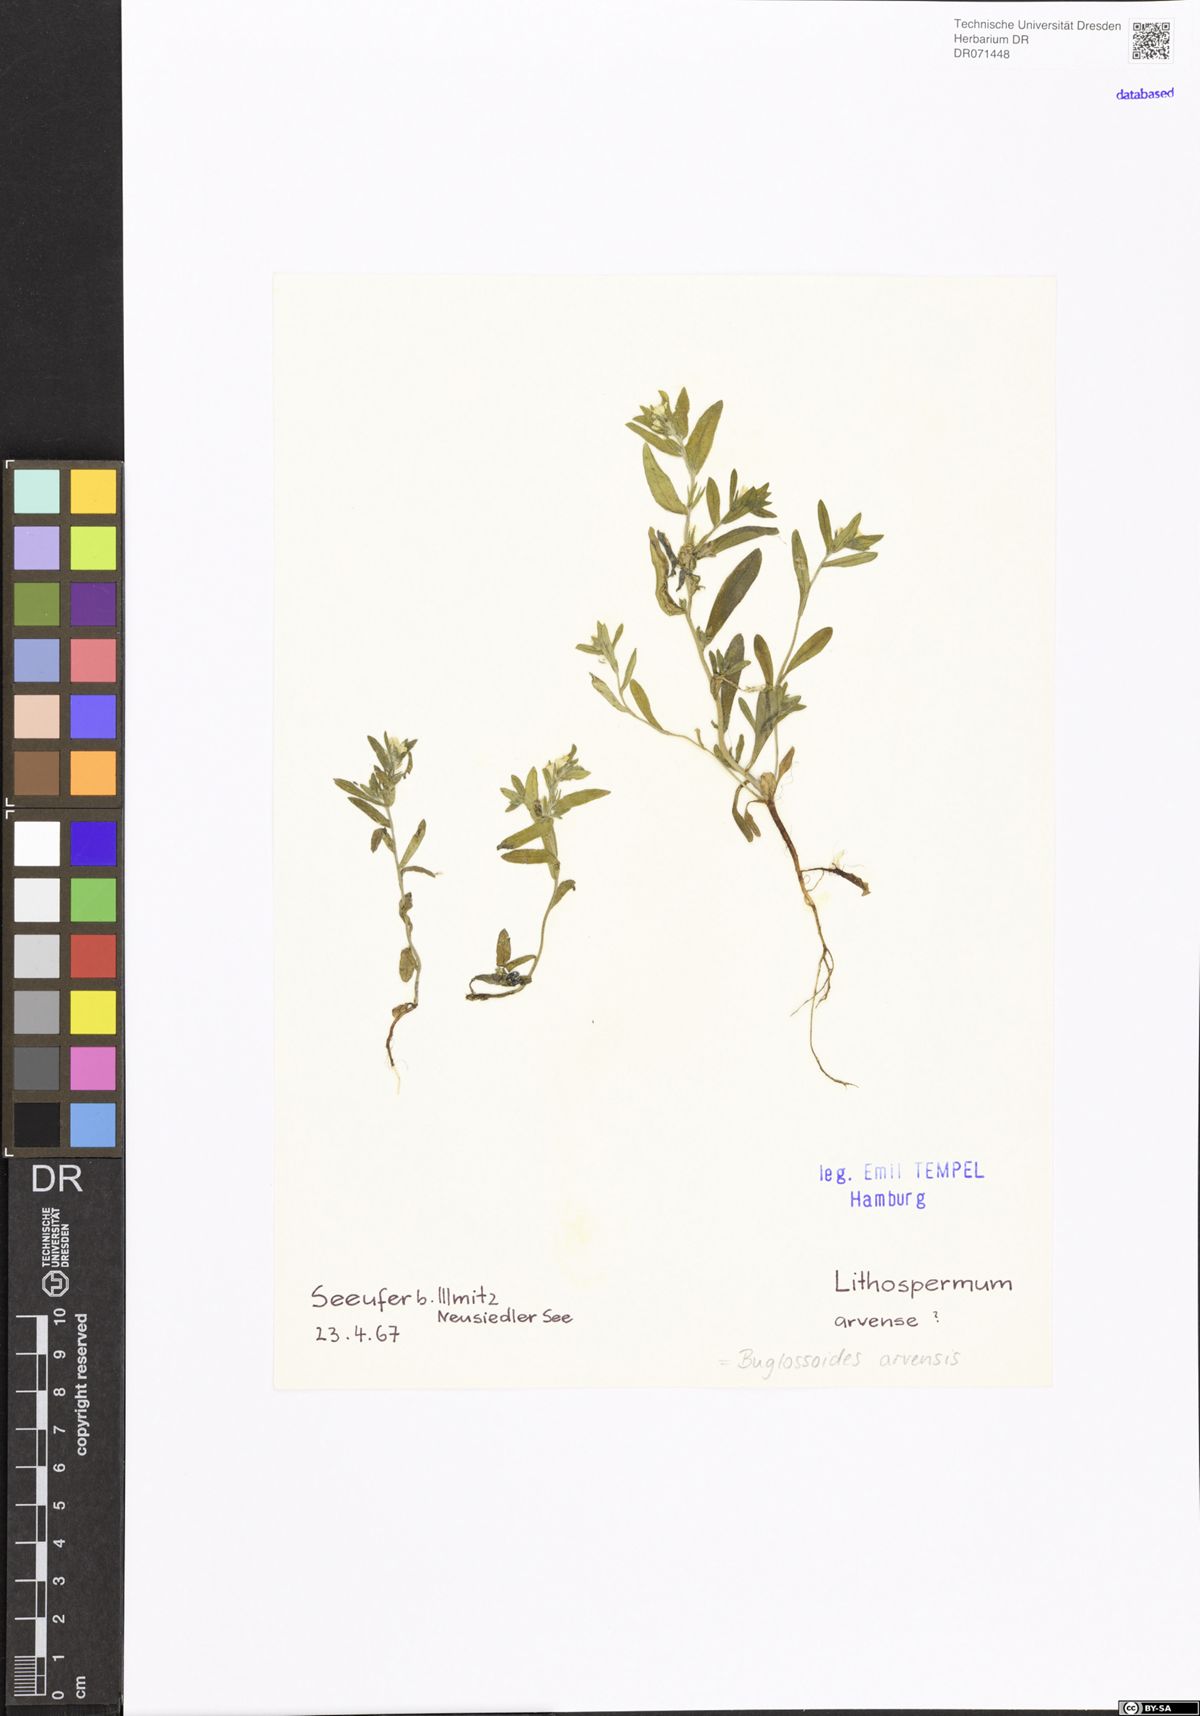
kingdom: Plantae
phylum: Tracheophyta
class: Magnoliopsida
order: Boraginales
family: Boraginaceae
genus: Buglossoides
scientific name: Buglossoides arvensis
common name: Corn gromwell
